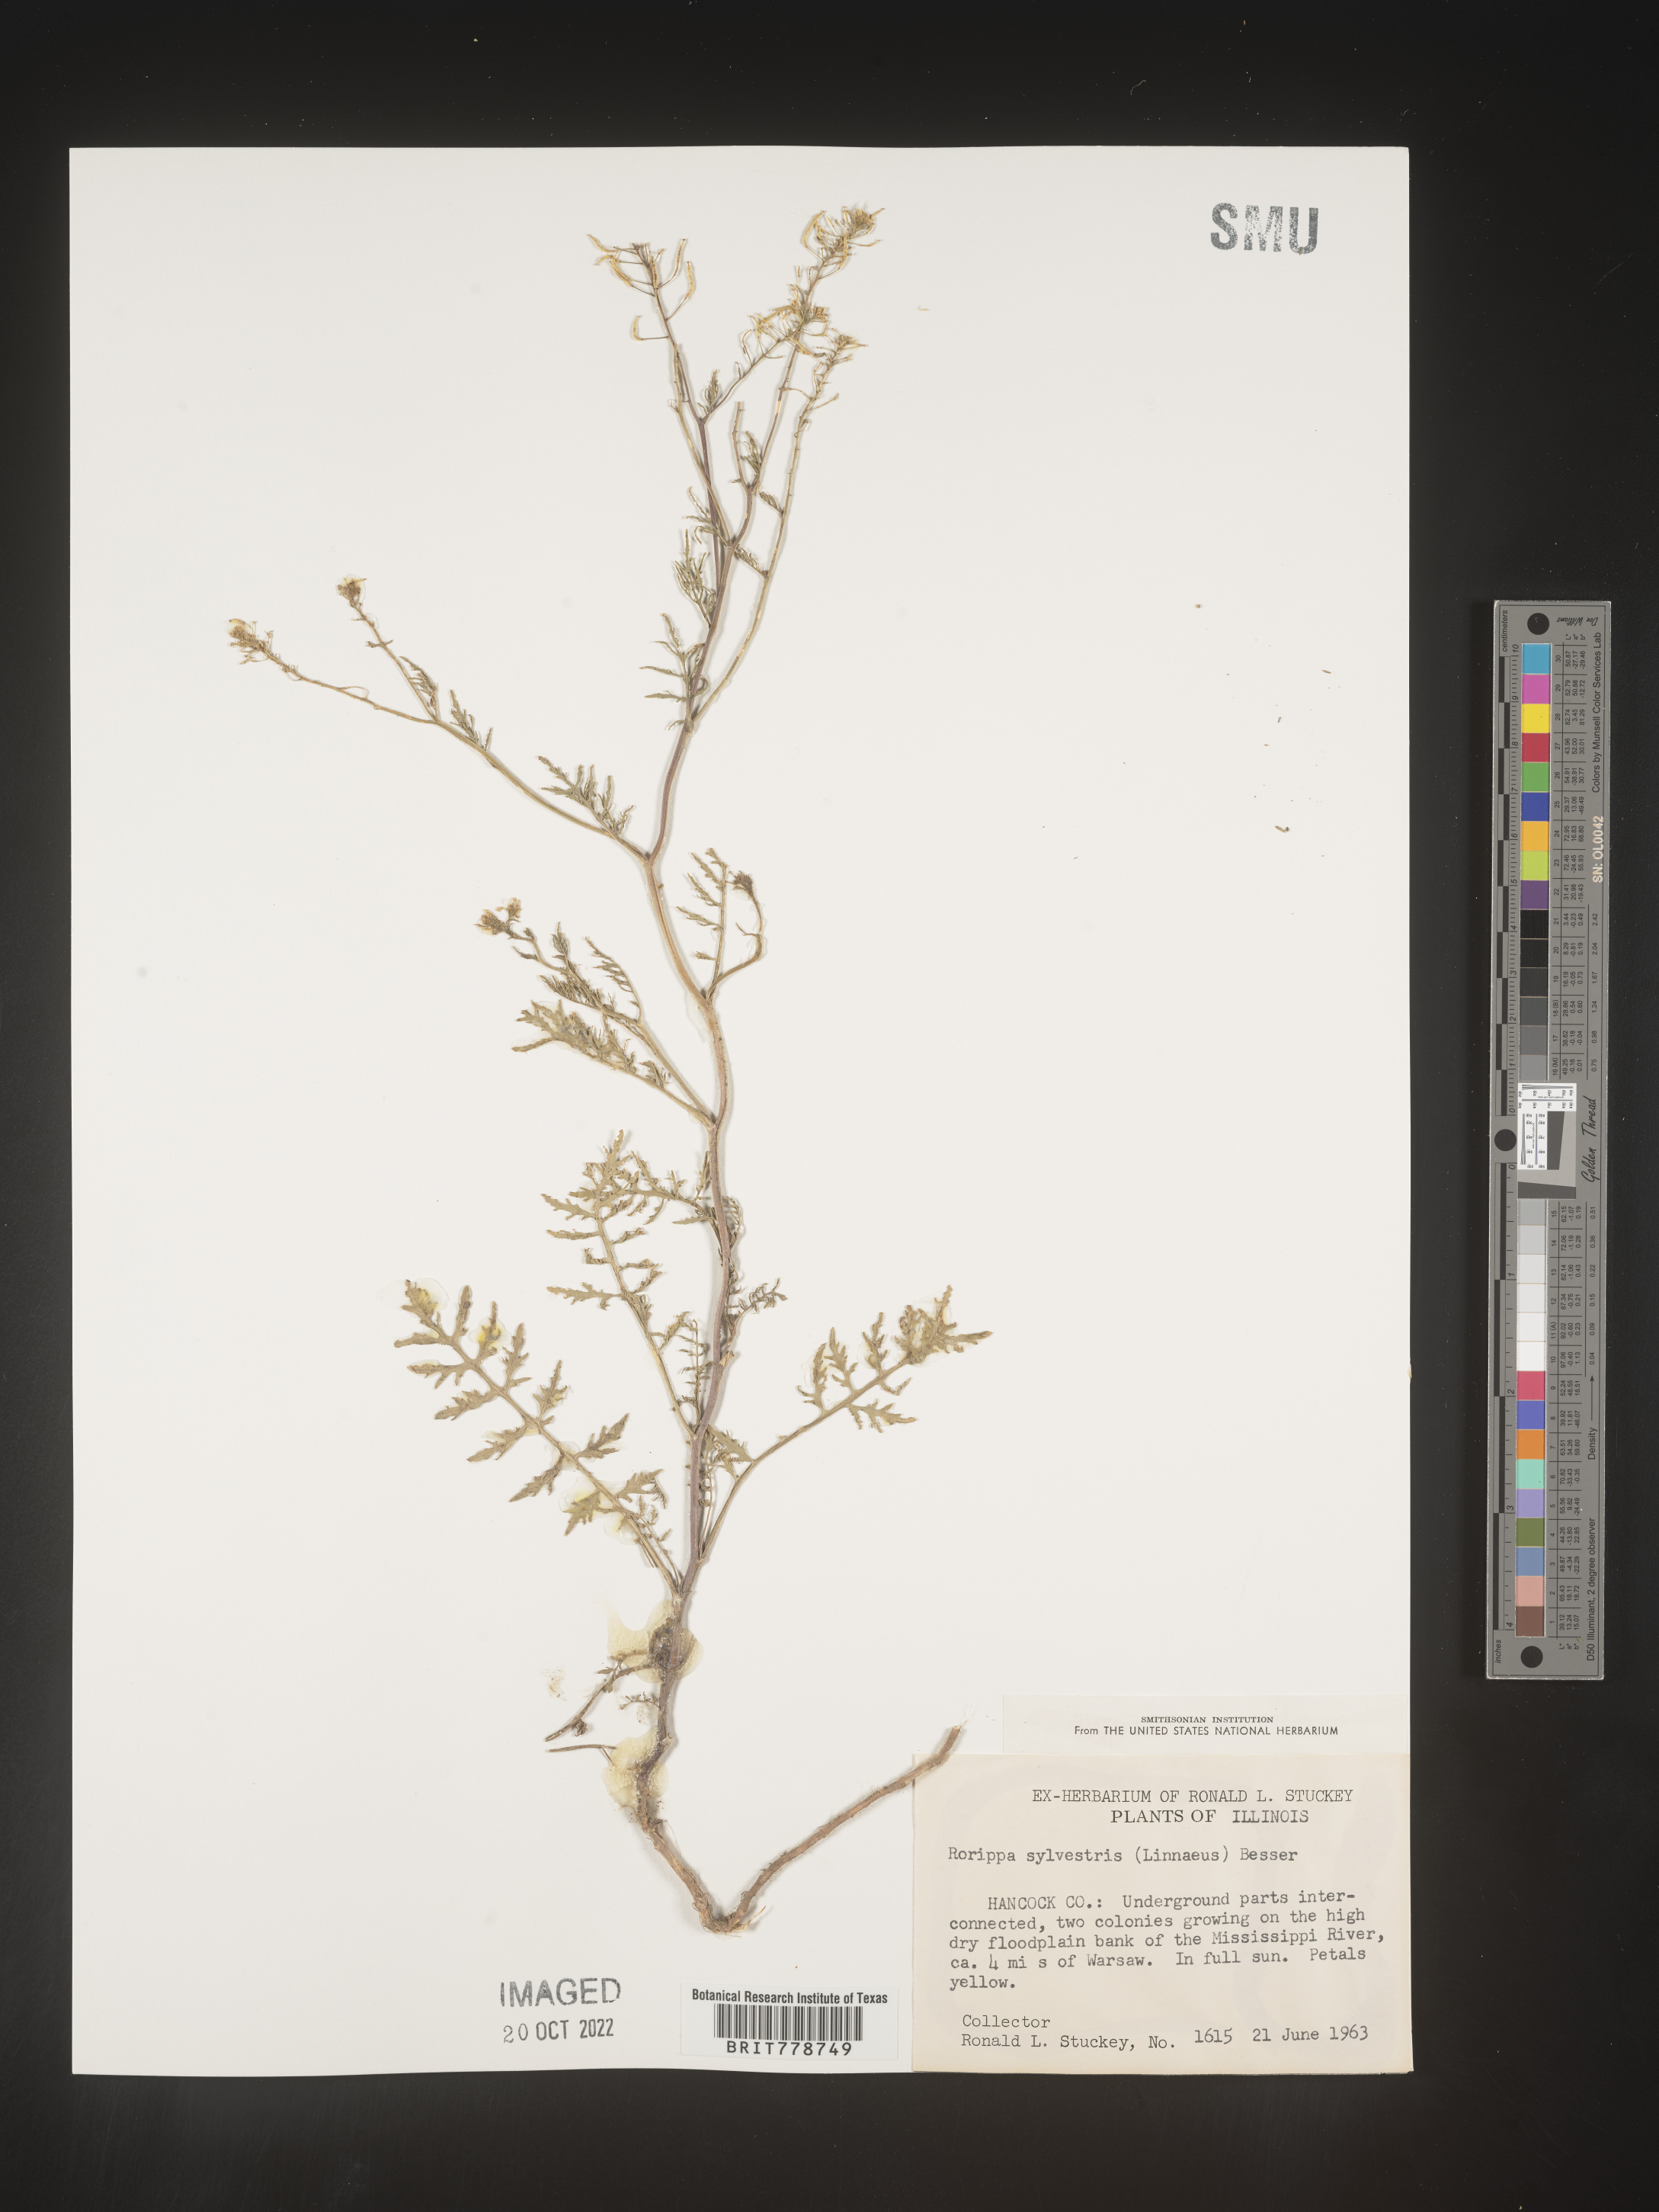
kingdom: Plantae
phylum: Tracheophyta
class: Magnoliopsida
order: Brassicales
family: Brassicaceae
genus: Rorippa
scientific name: Rorippa sylvestris
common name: Creeping yellowcress
